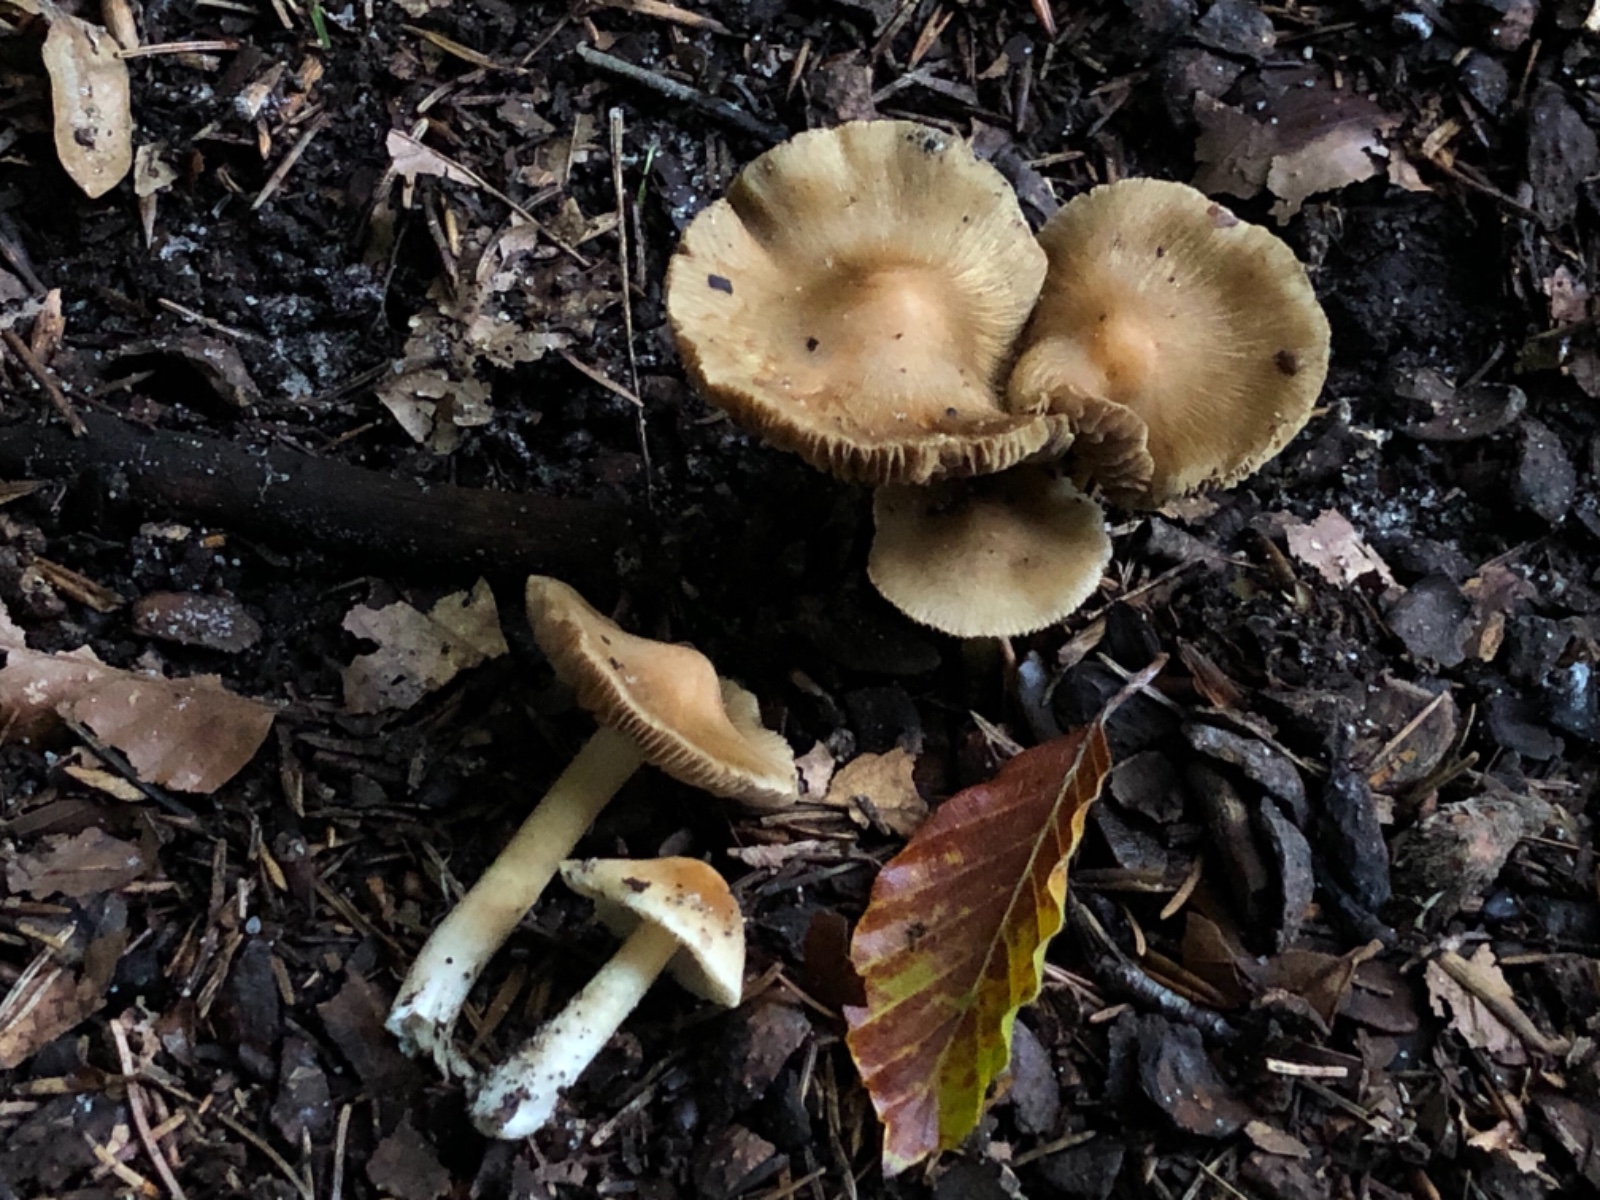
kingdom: Fungi
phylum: Basidiomycota
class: Agaricomycetes
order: Agaricales
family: Inocybaceae
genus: Inosperma
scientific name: Inosperma
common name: strågul trævlhat
